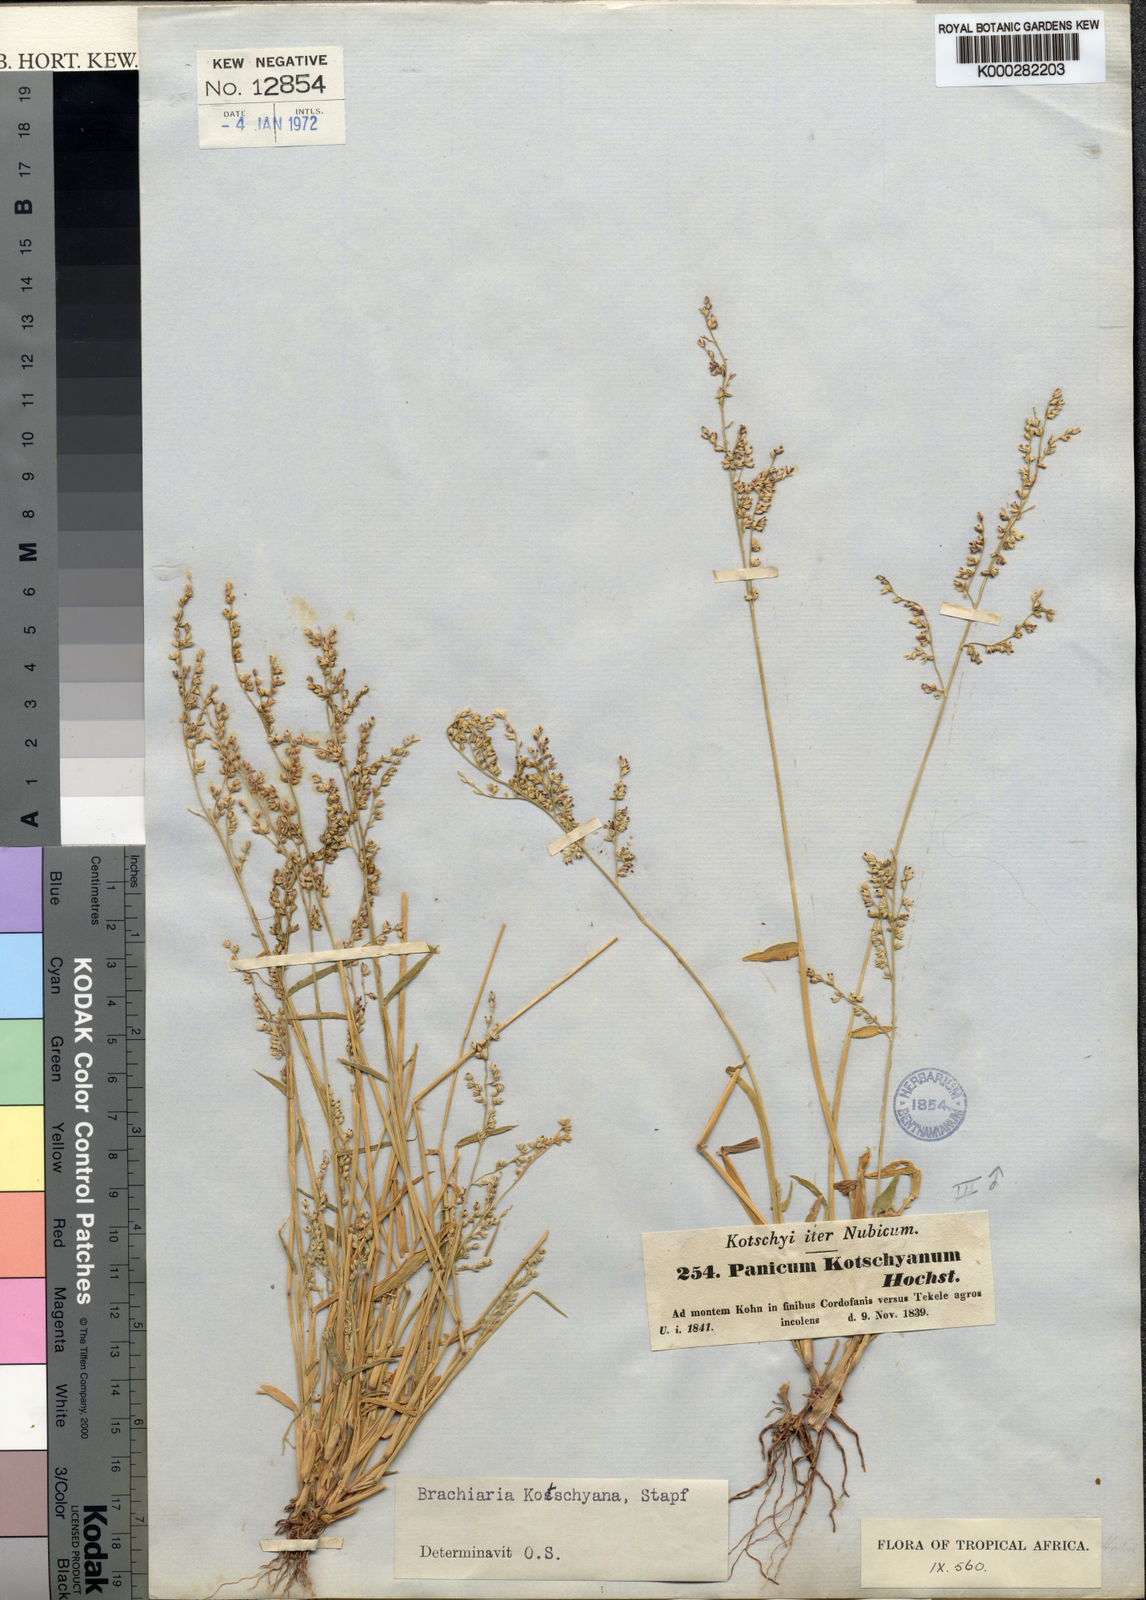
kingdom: Plantae
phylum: Tracheophyta
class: Liliopsida
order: Poales
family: Poaceae
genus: Urochloa
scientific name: Urochloa comata
